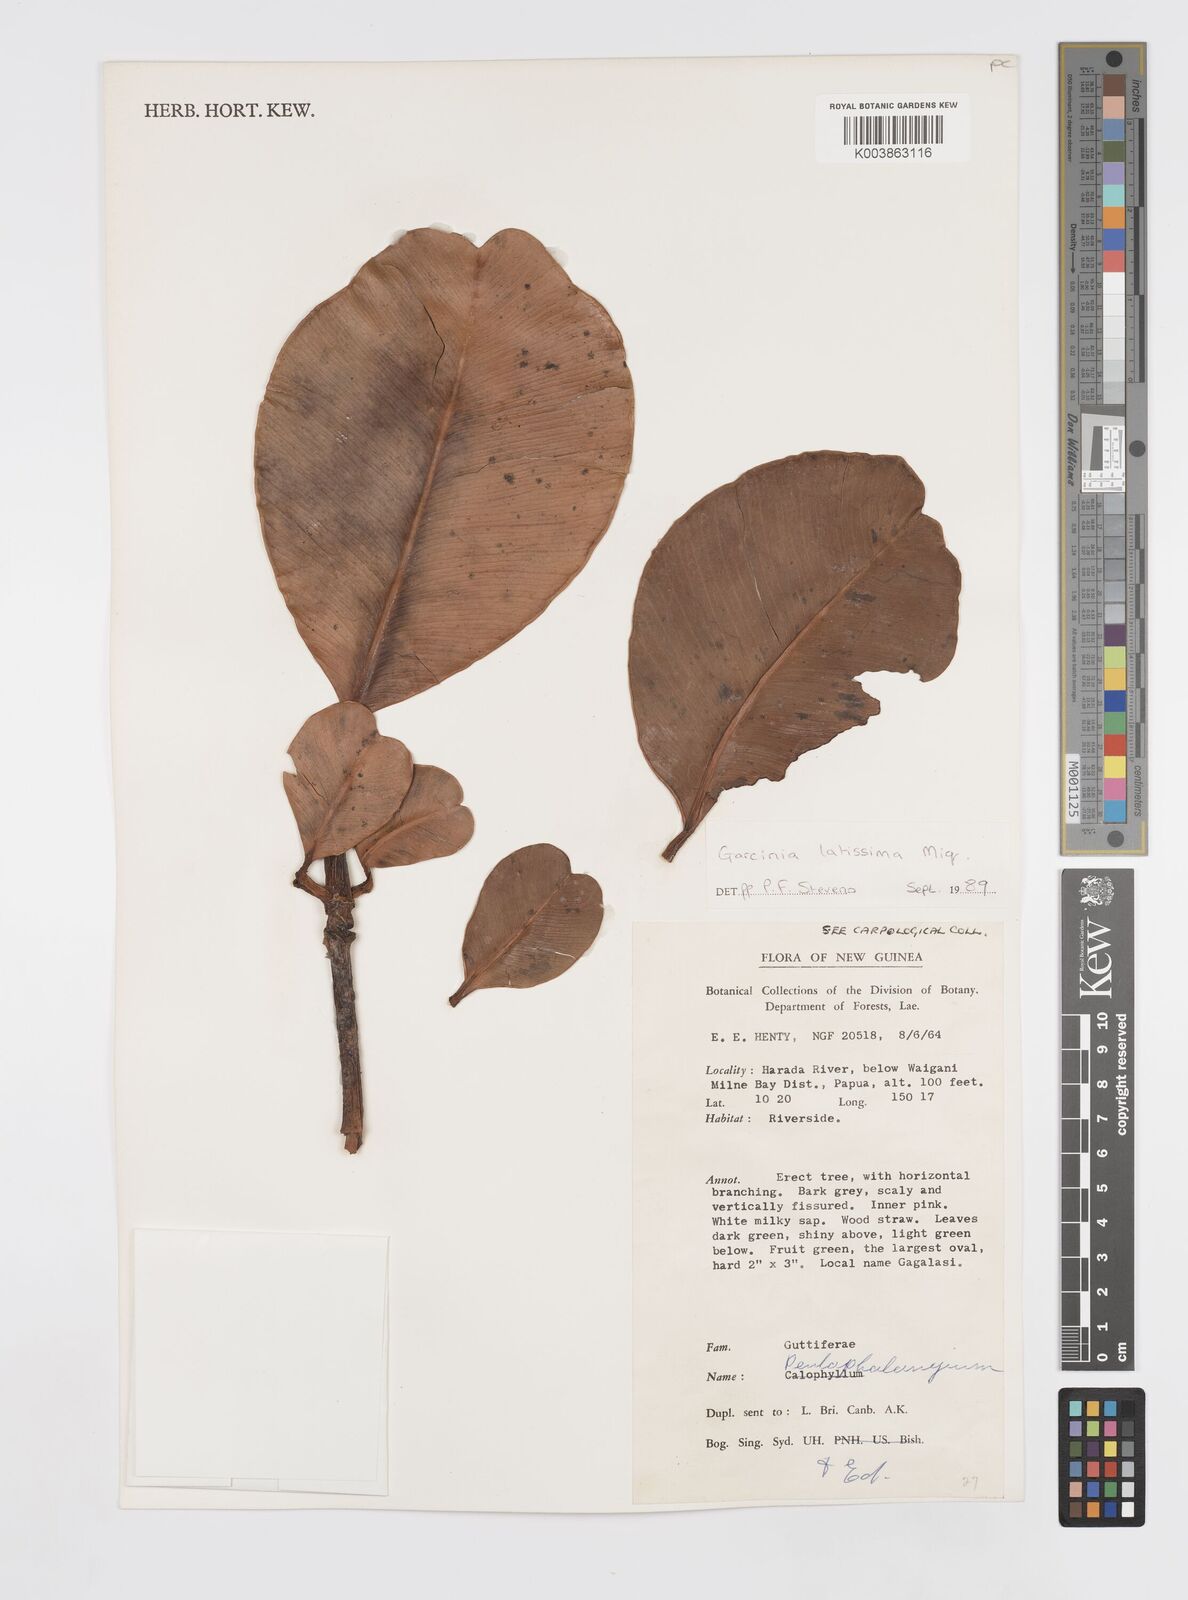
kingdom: Plantae
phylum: Tracheophyta
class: Magnoliopsida
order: Malpighiales
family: Clusiaceae
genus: Garcinia
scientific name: Garcinia latissima
